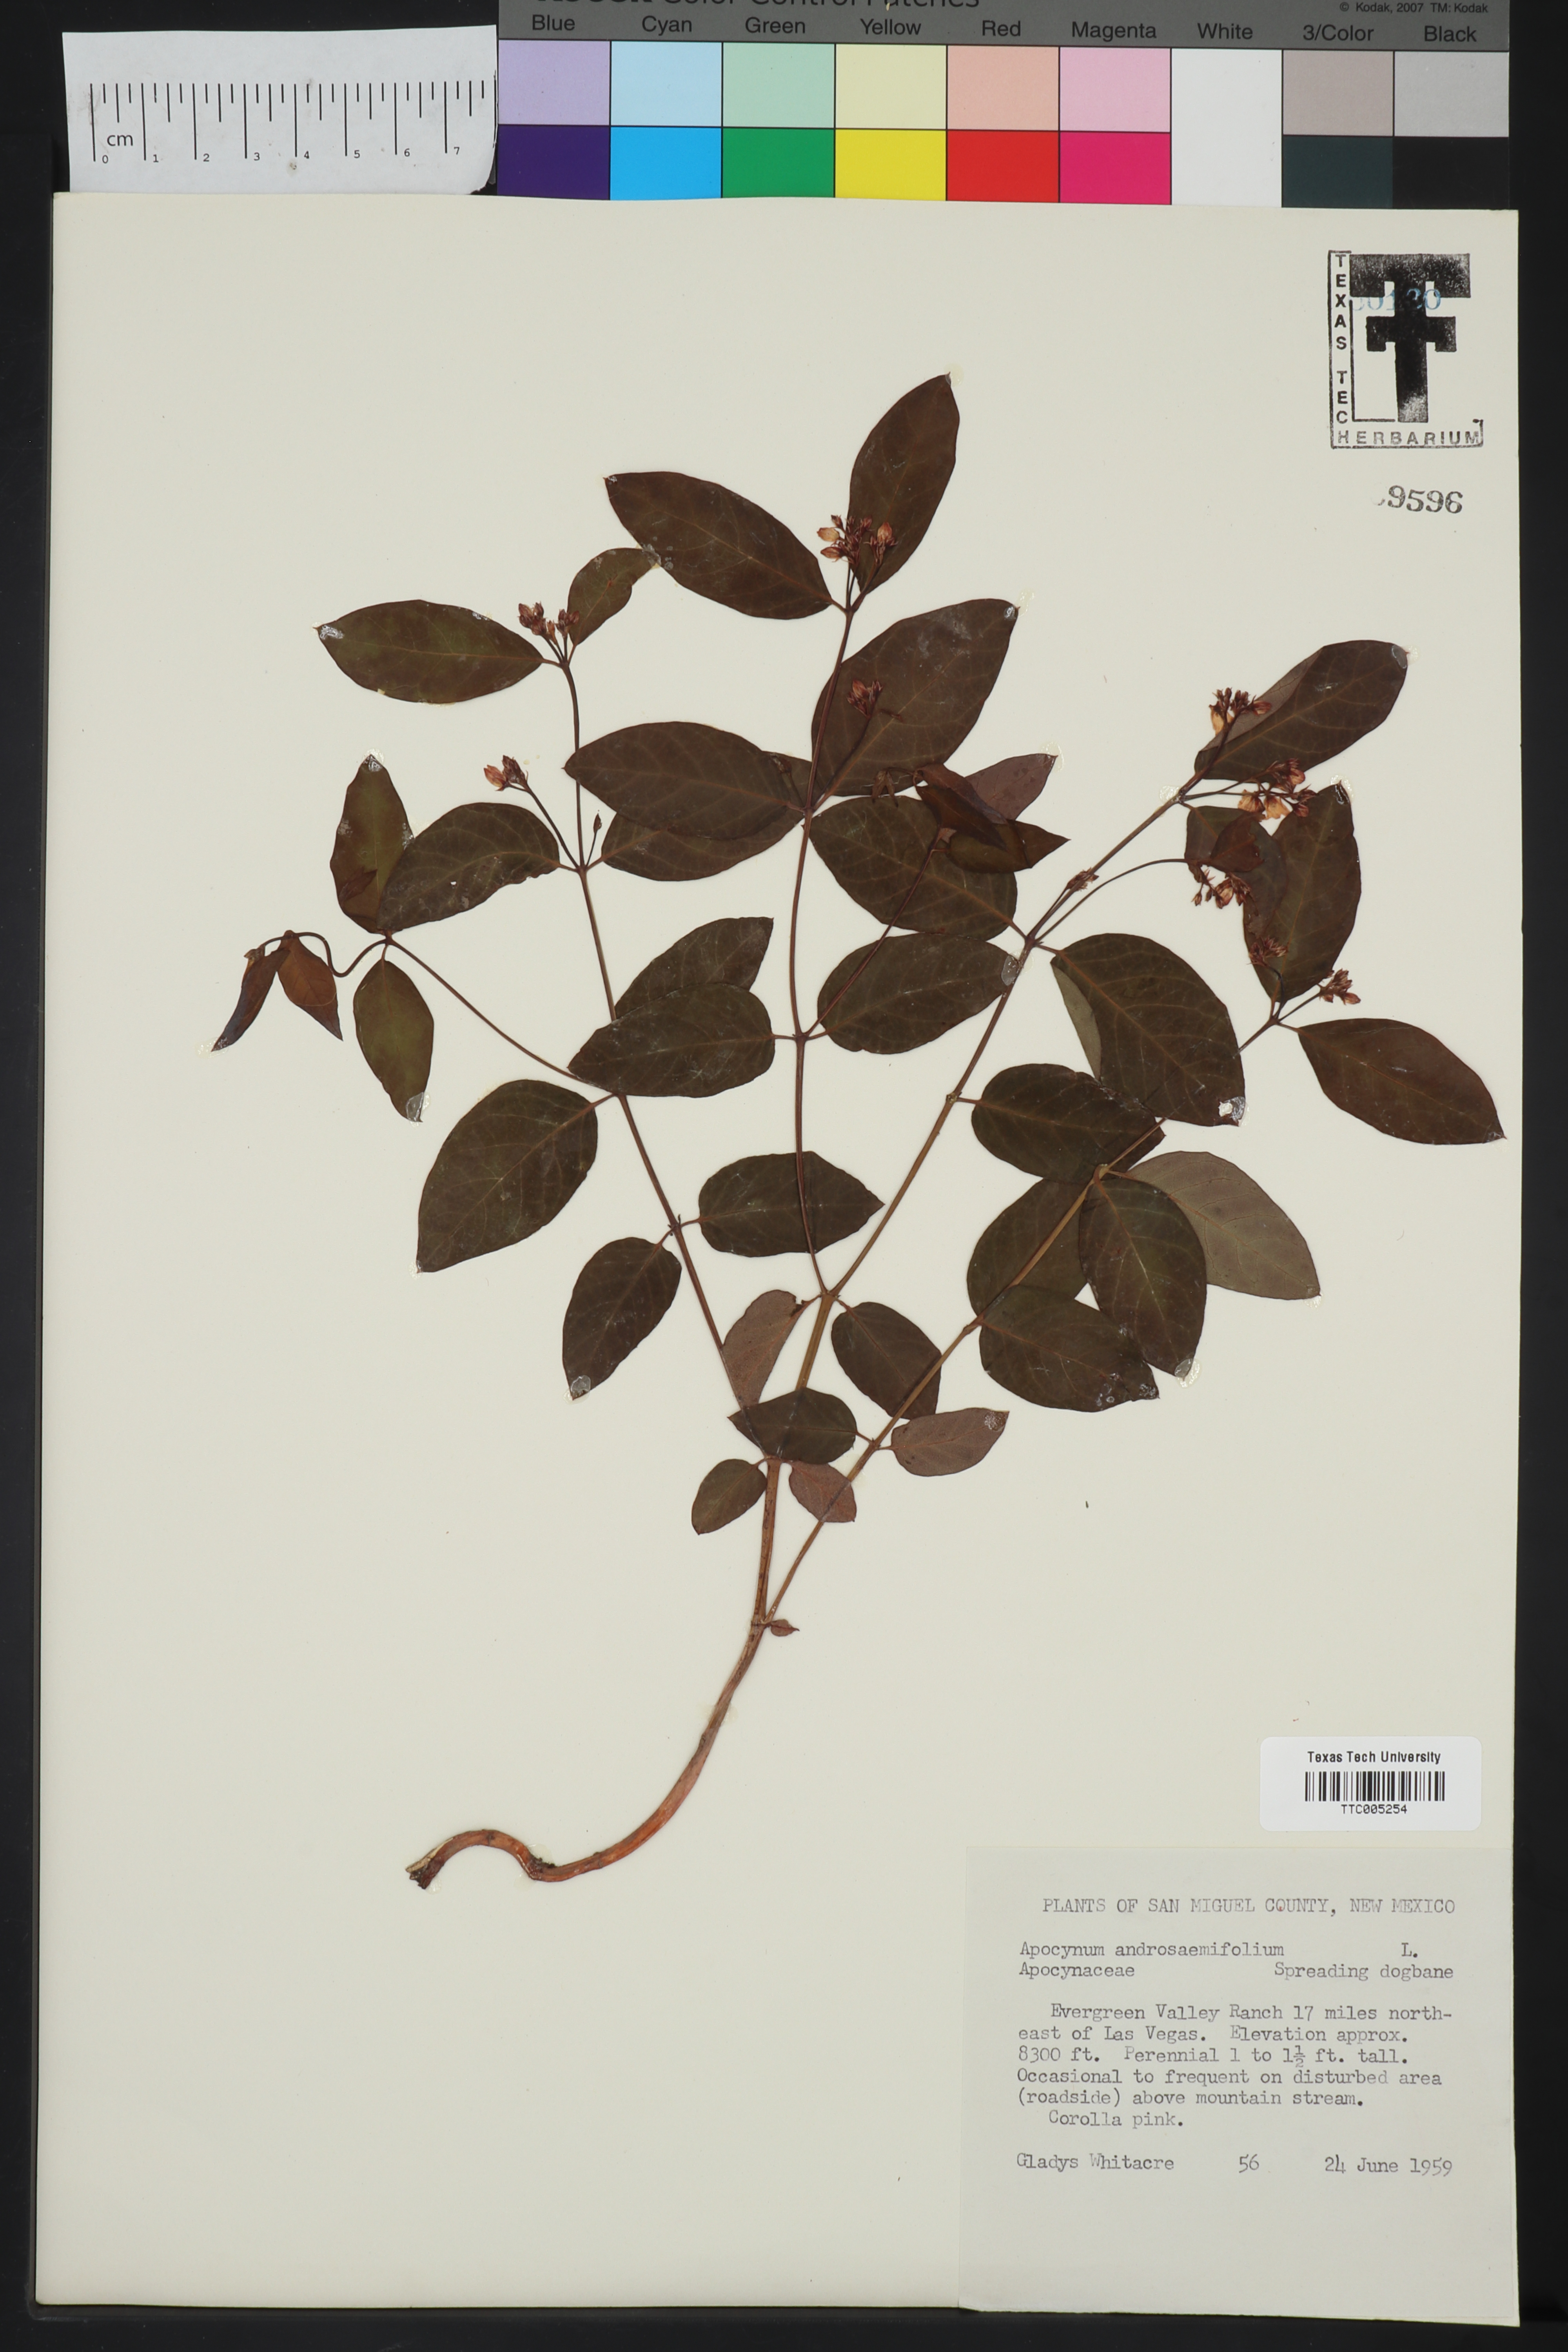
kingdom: Plantae
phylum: Tracheophyta
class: Magnoliopsida
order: Gentianales
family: Apocynaceae
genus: Apocynum
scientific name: Apocynum androsaemifolium
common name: Spreading dogbane
